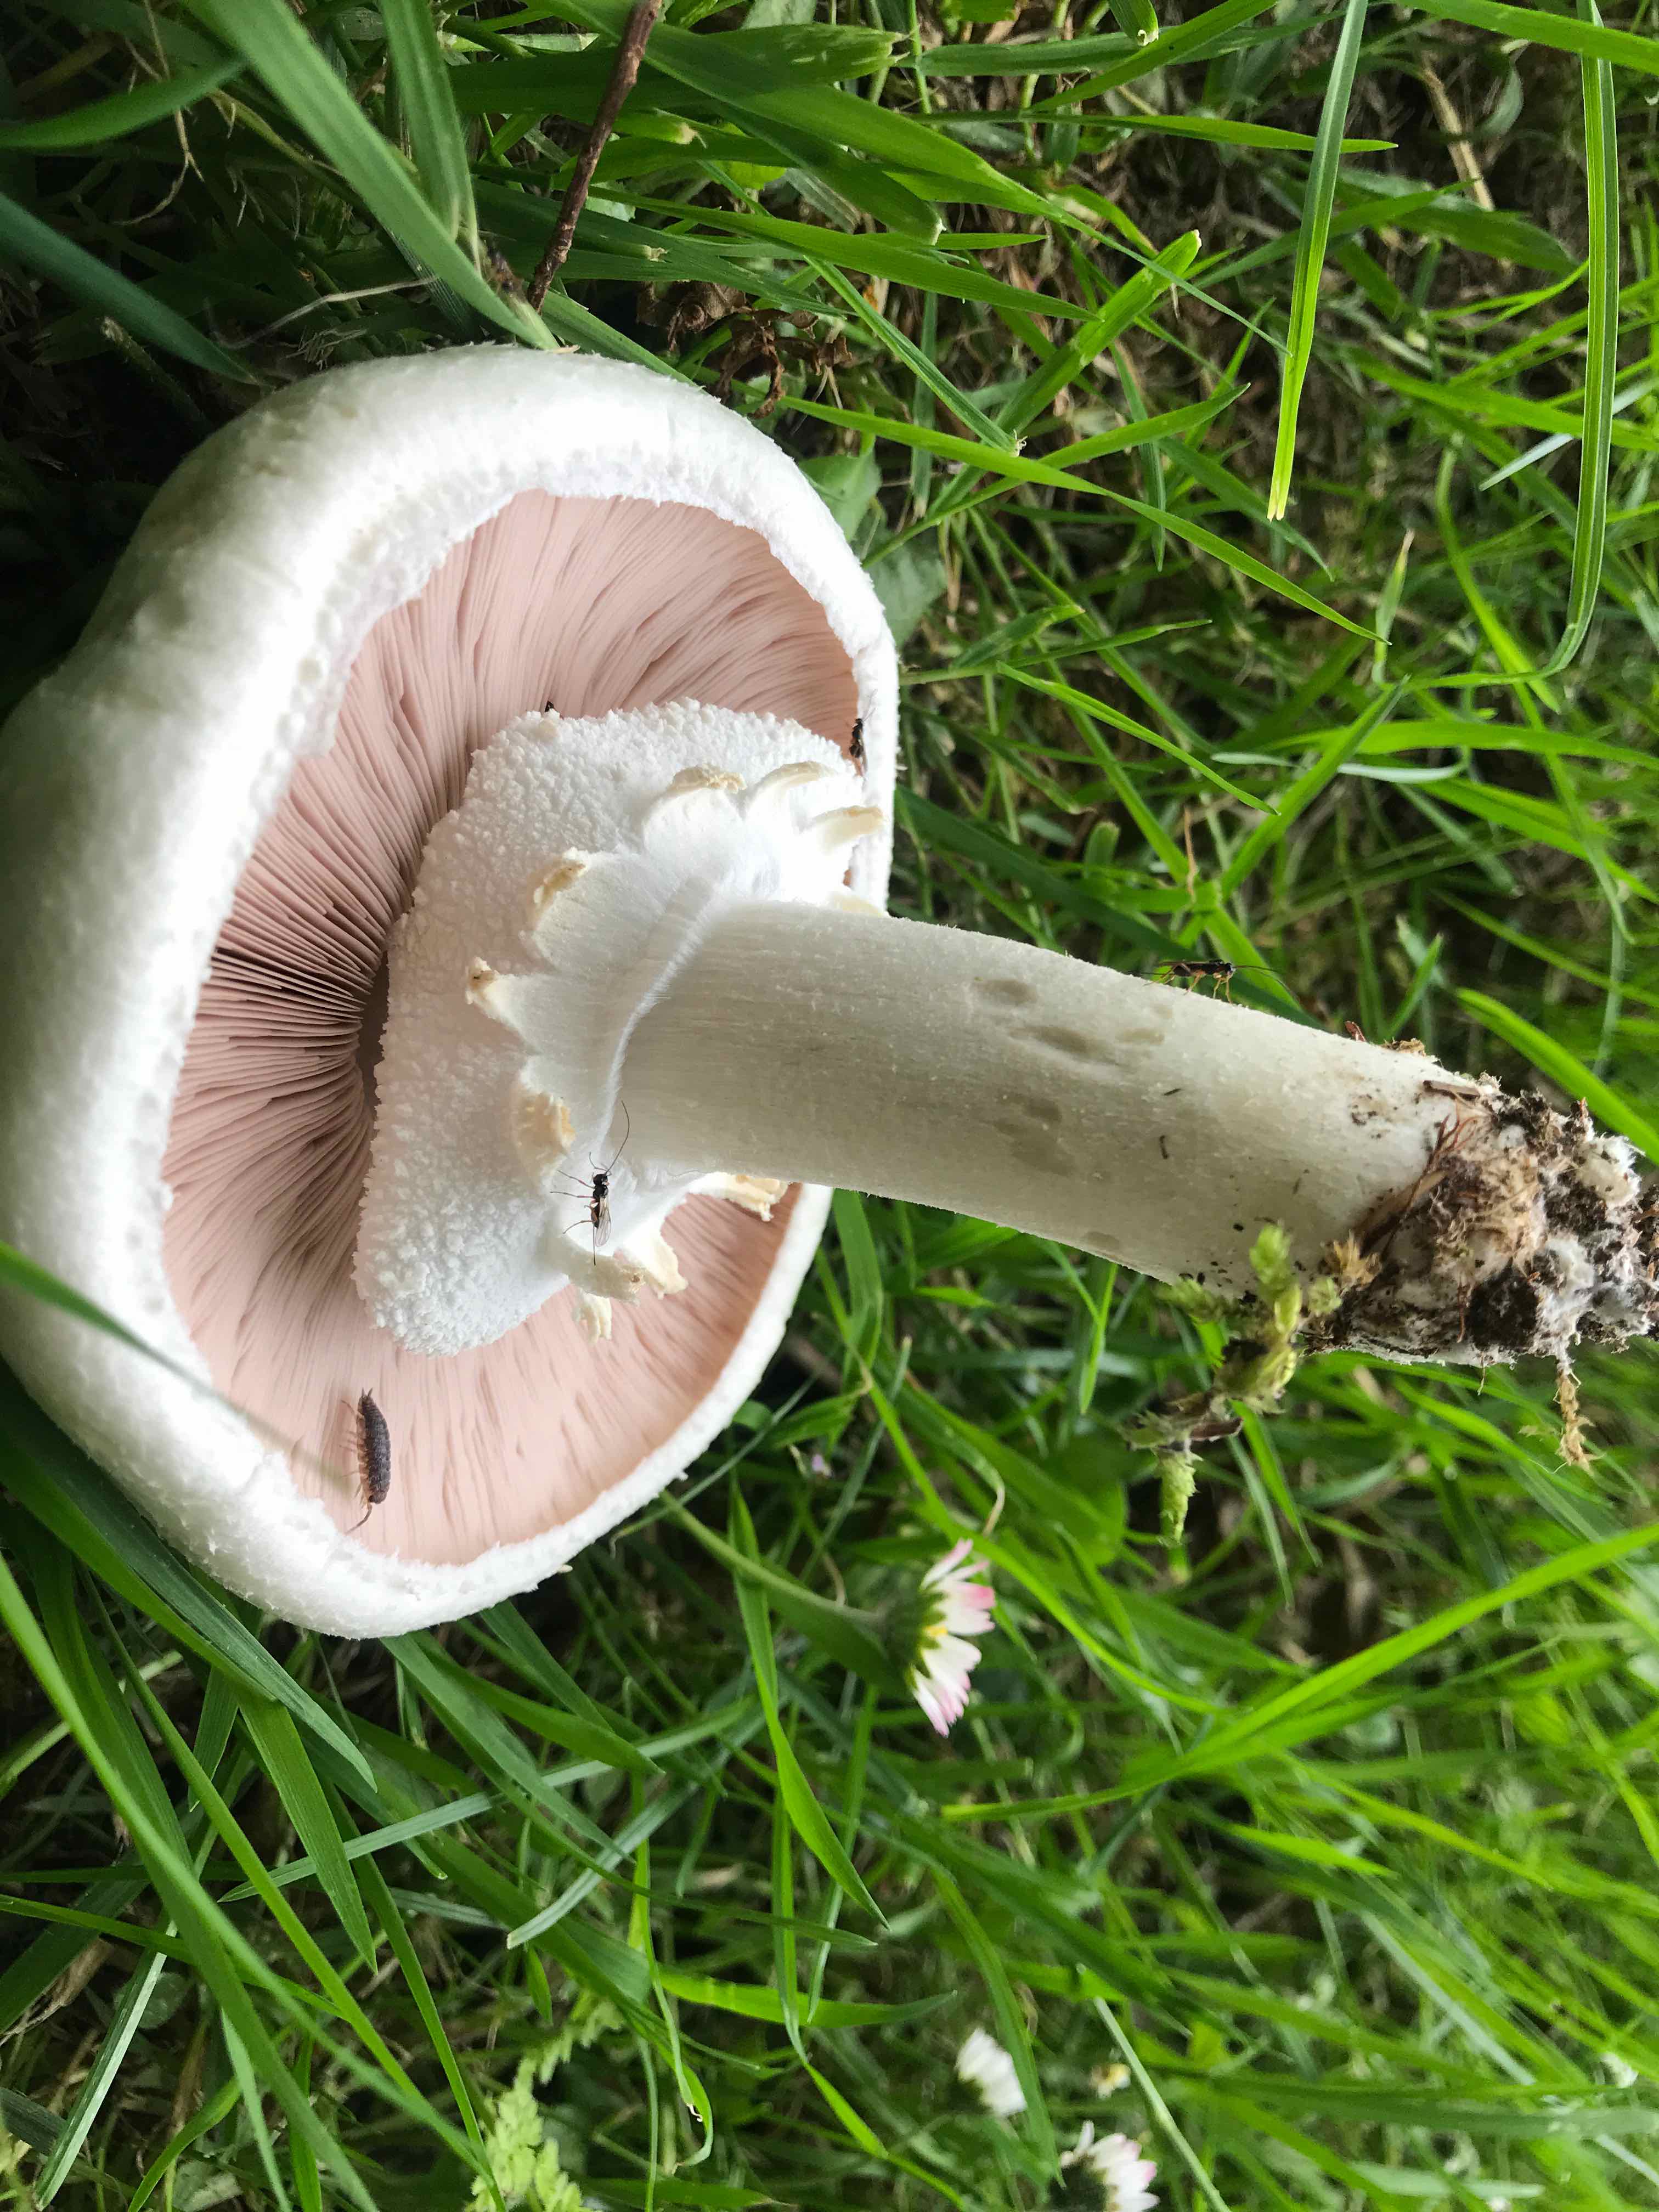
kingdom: Fungi
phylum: Basidiomycota
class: Agaricomycetes
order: Agaricales
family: Agaricaceae
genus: Agaricus
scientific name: Agaricus
